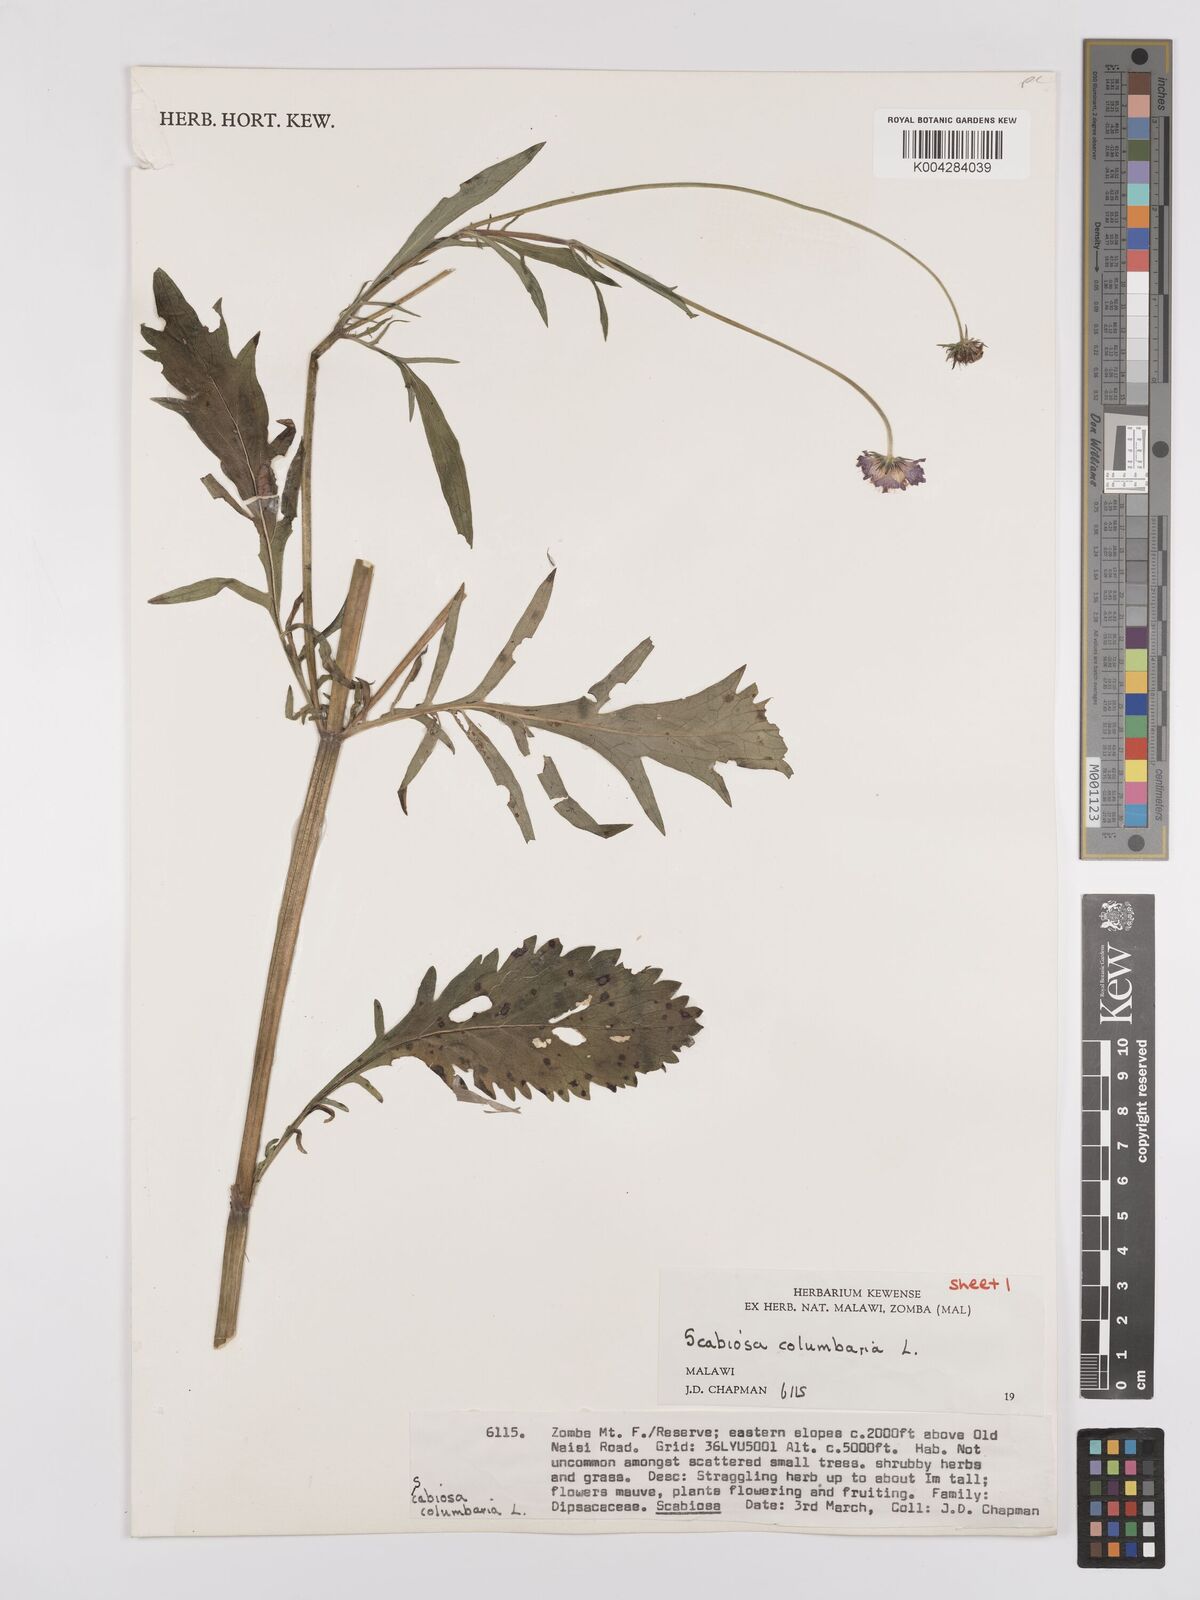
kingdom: Plantae
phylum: Tracheophyta
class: Magnoliopsida
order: Dipsacales
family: Caprifoliaceae
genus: Scabiosa
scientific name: Scabiosa austroafricana
